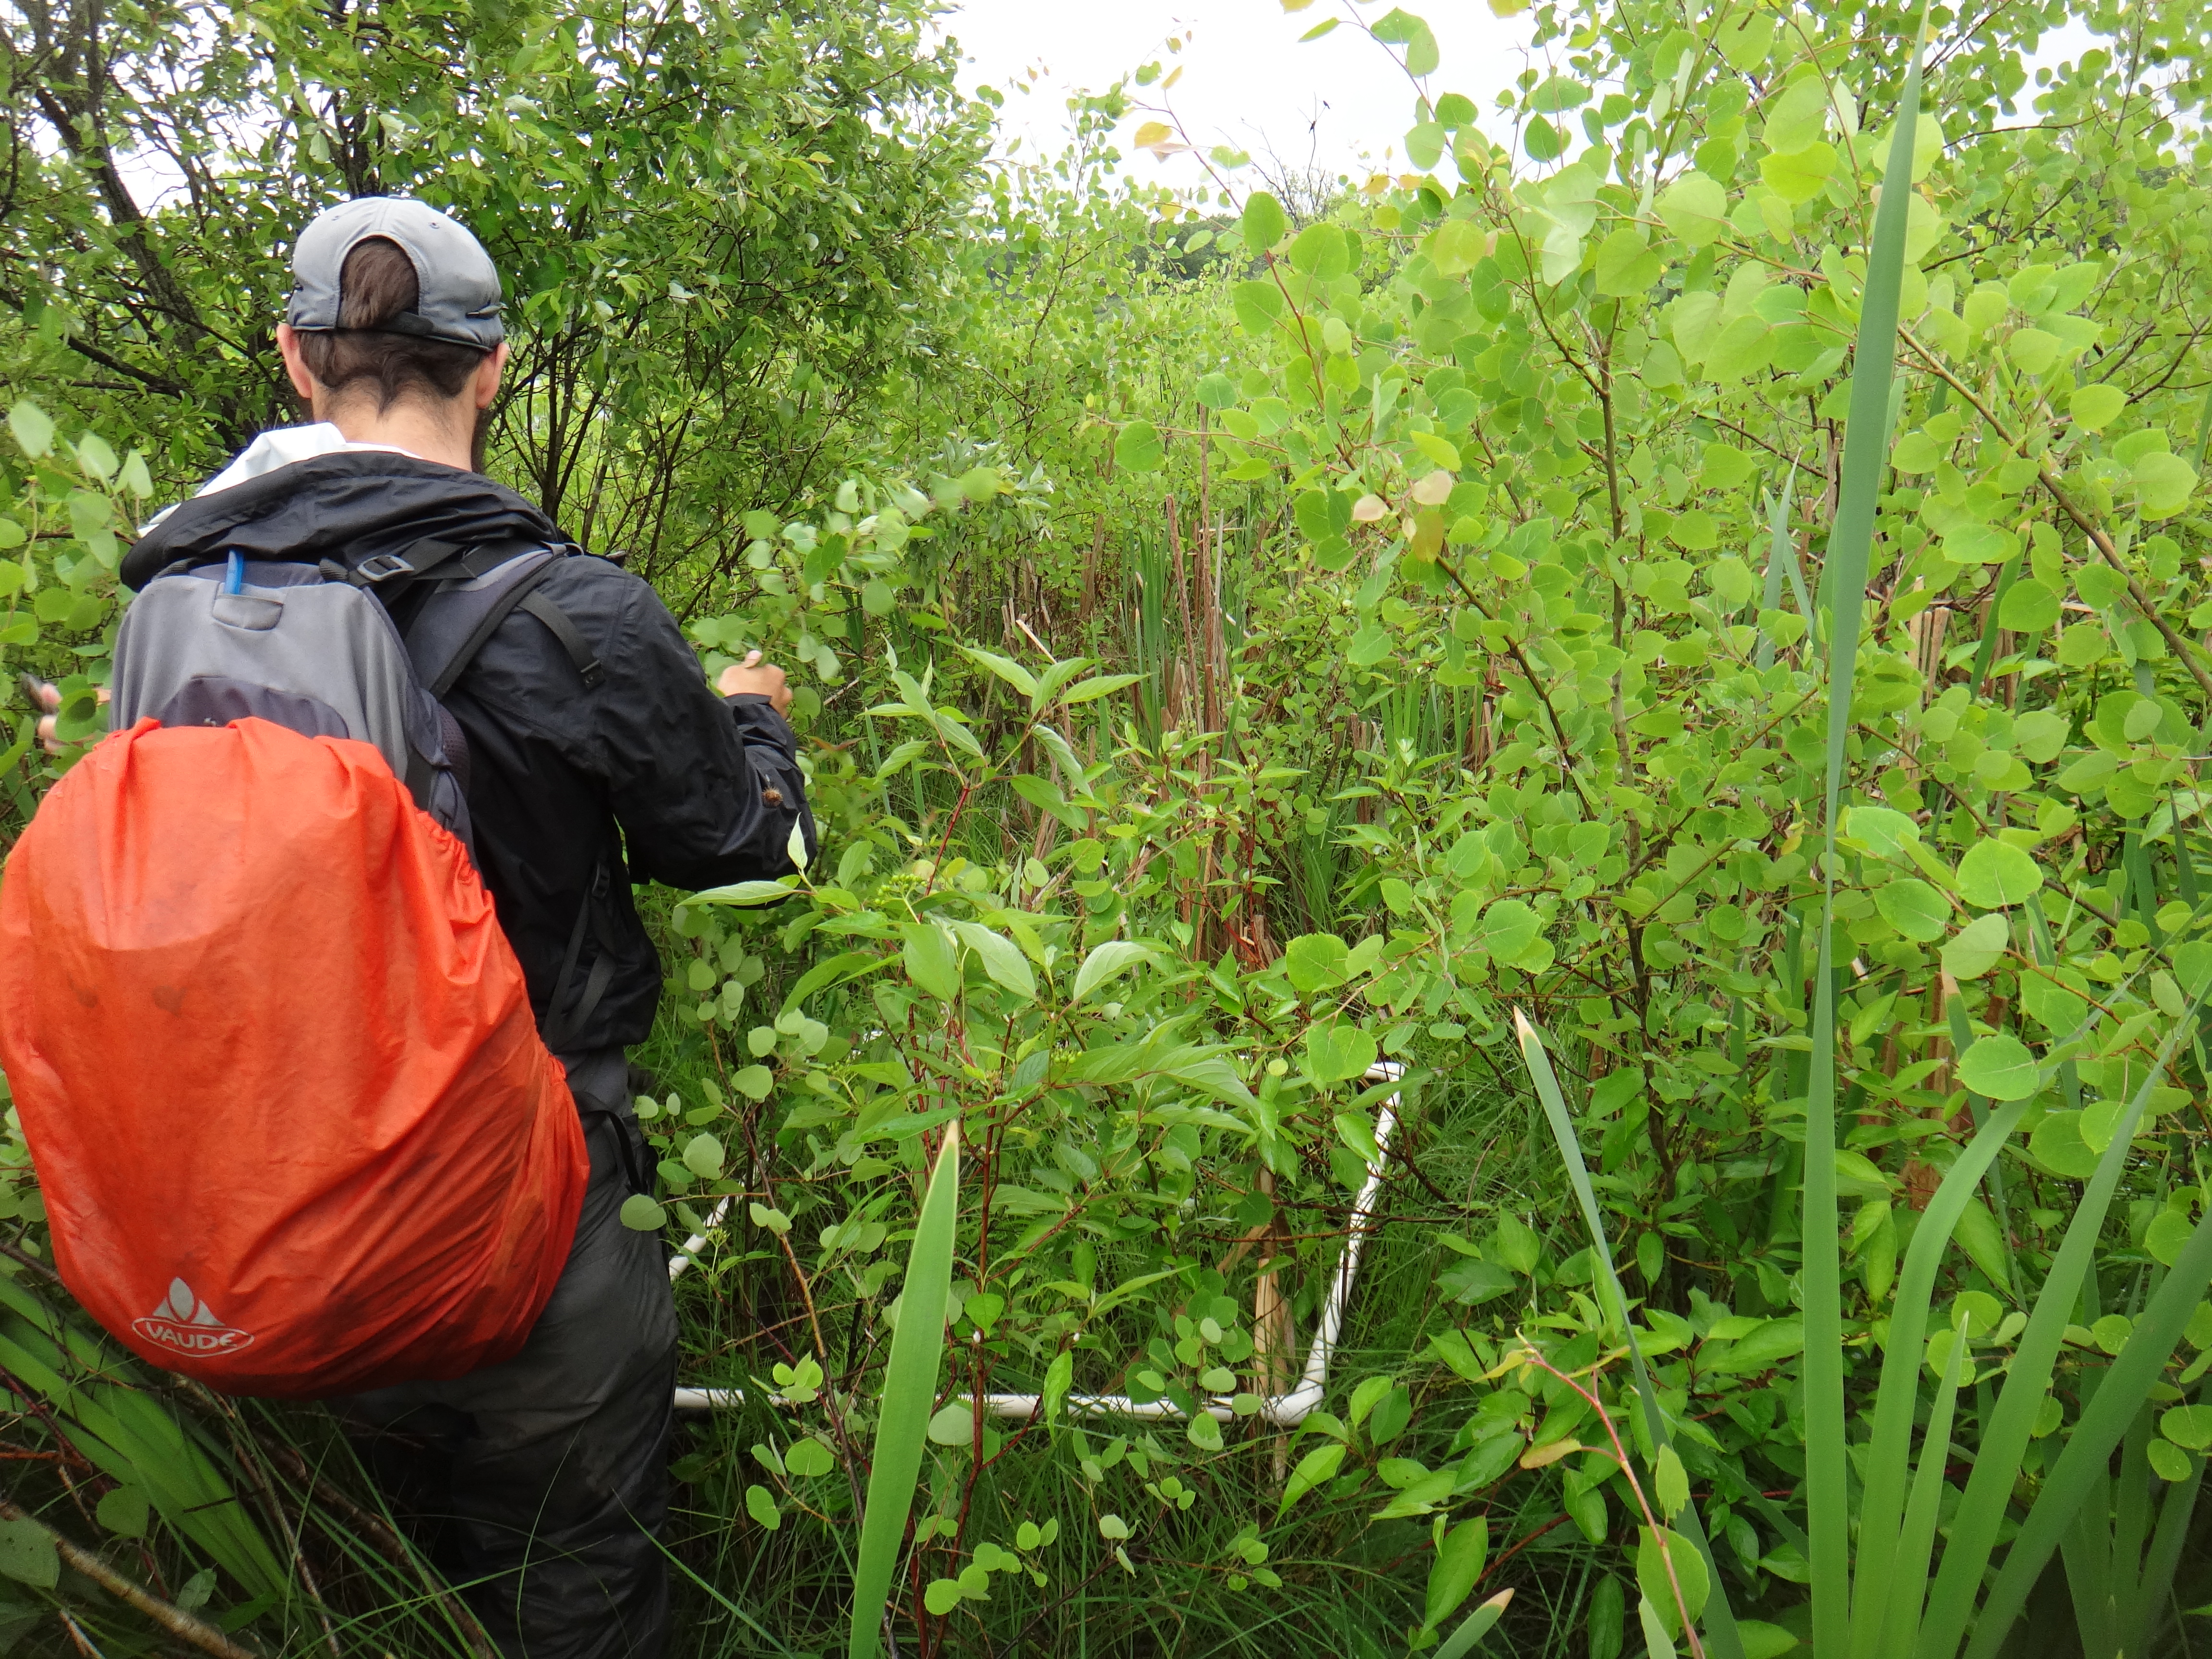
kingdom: Plantae
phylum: Tracheophyta
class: Liliopsida
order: Poales
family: Cyperaceae
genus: Carex
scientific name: Carex stricta
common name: Hummock sedge
